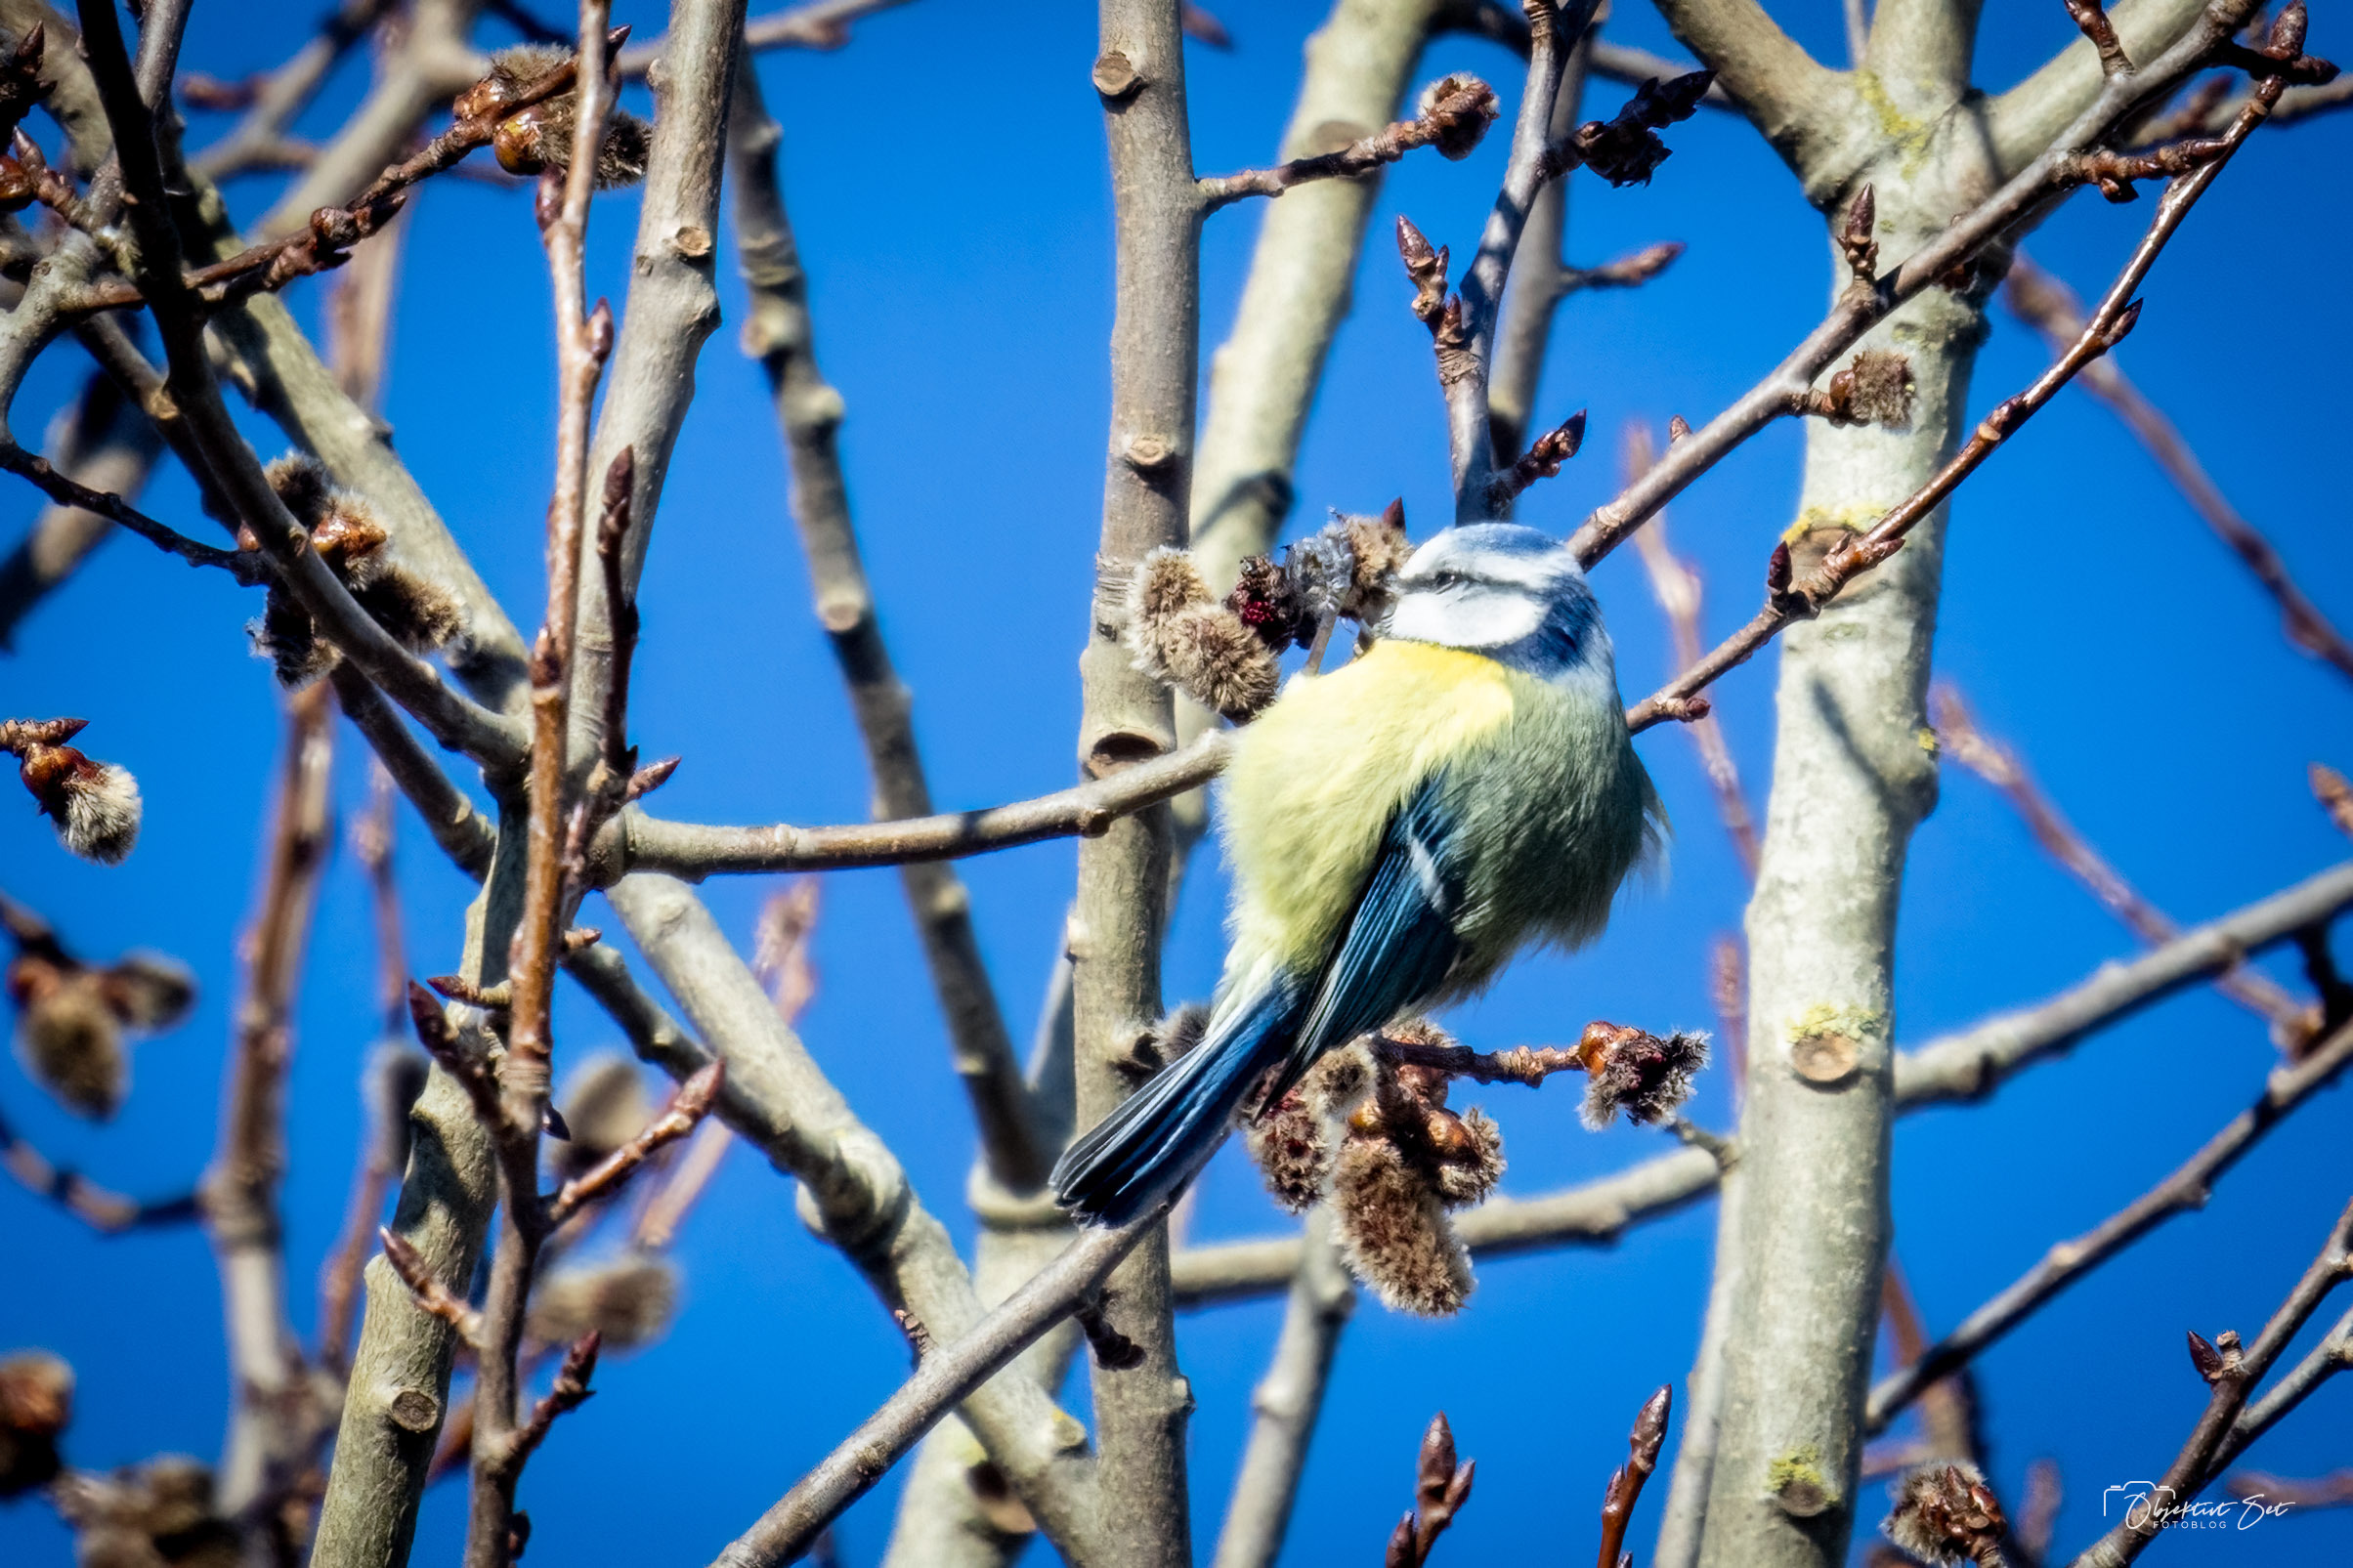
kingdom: Animalia
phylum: Chordata
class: Aves
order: Passeriformes
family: Paridae
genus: Cyanistes
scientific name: Cyanistes caeruleus
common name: Blåmejse
